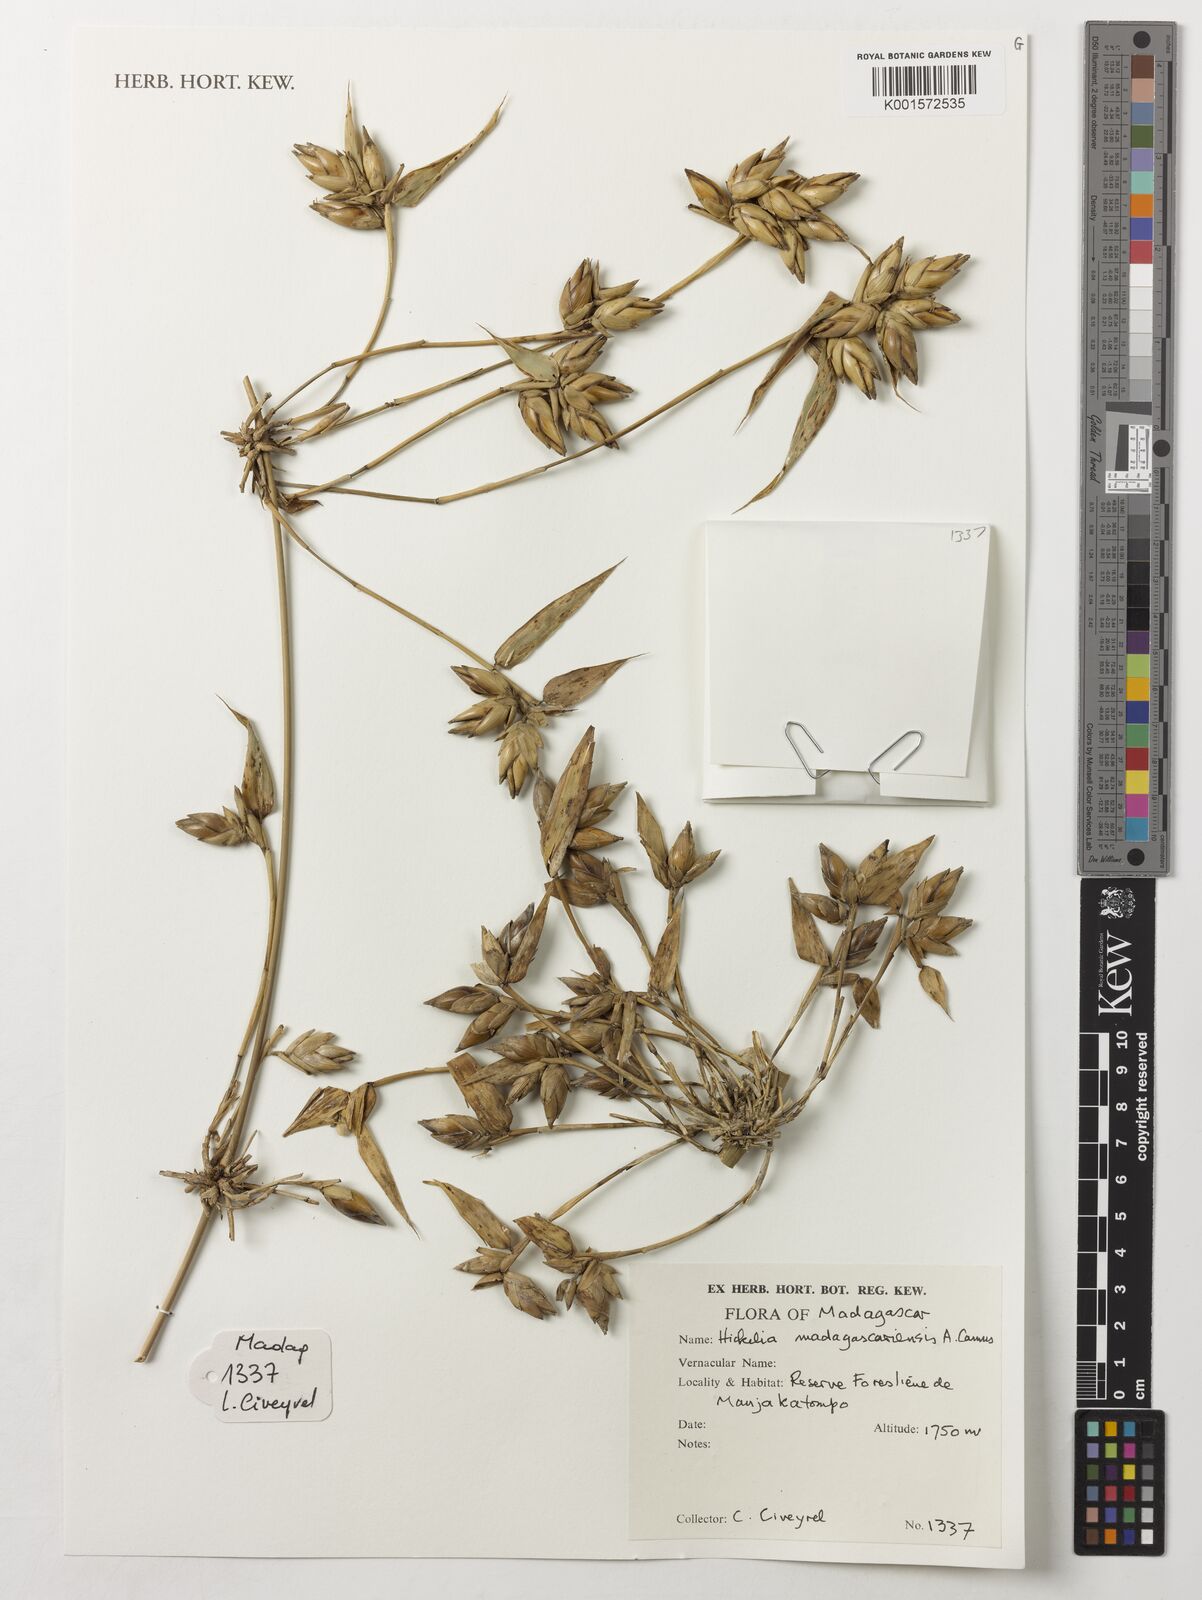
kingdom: Plantae
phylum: Tracheophyta
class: Liliopsida
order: Poales
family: Poaceae
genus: Hickelia
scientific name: Hickelia madagascariensis
